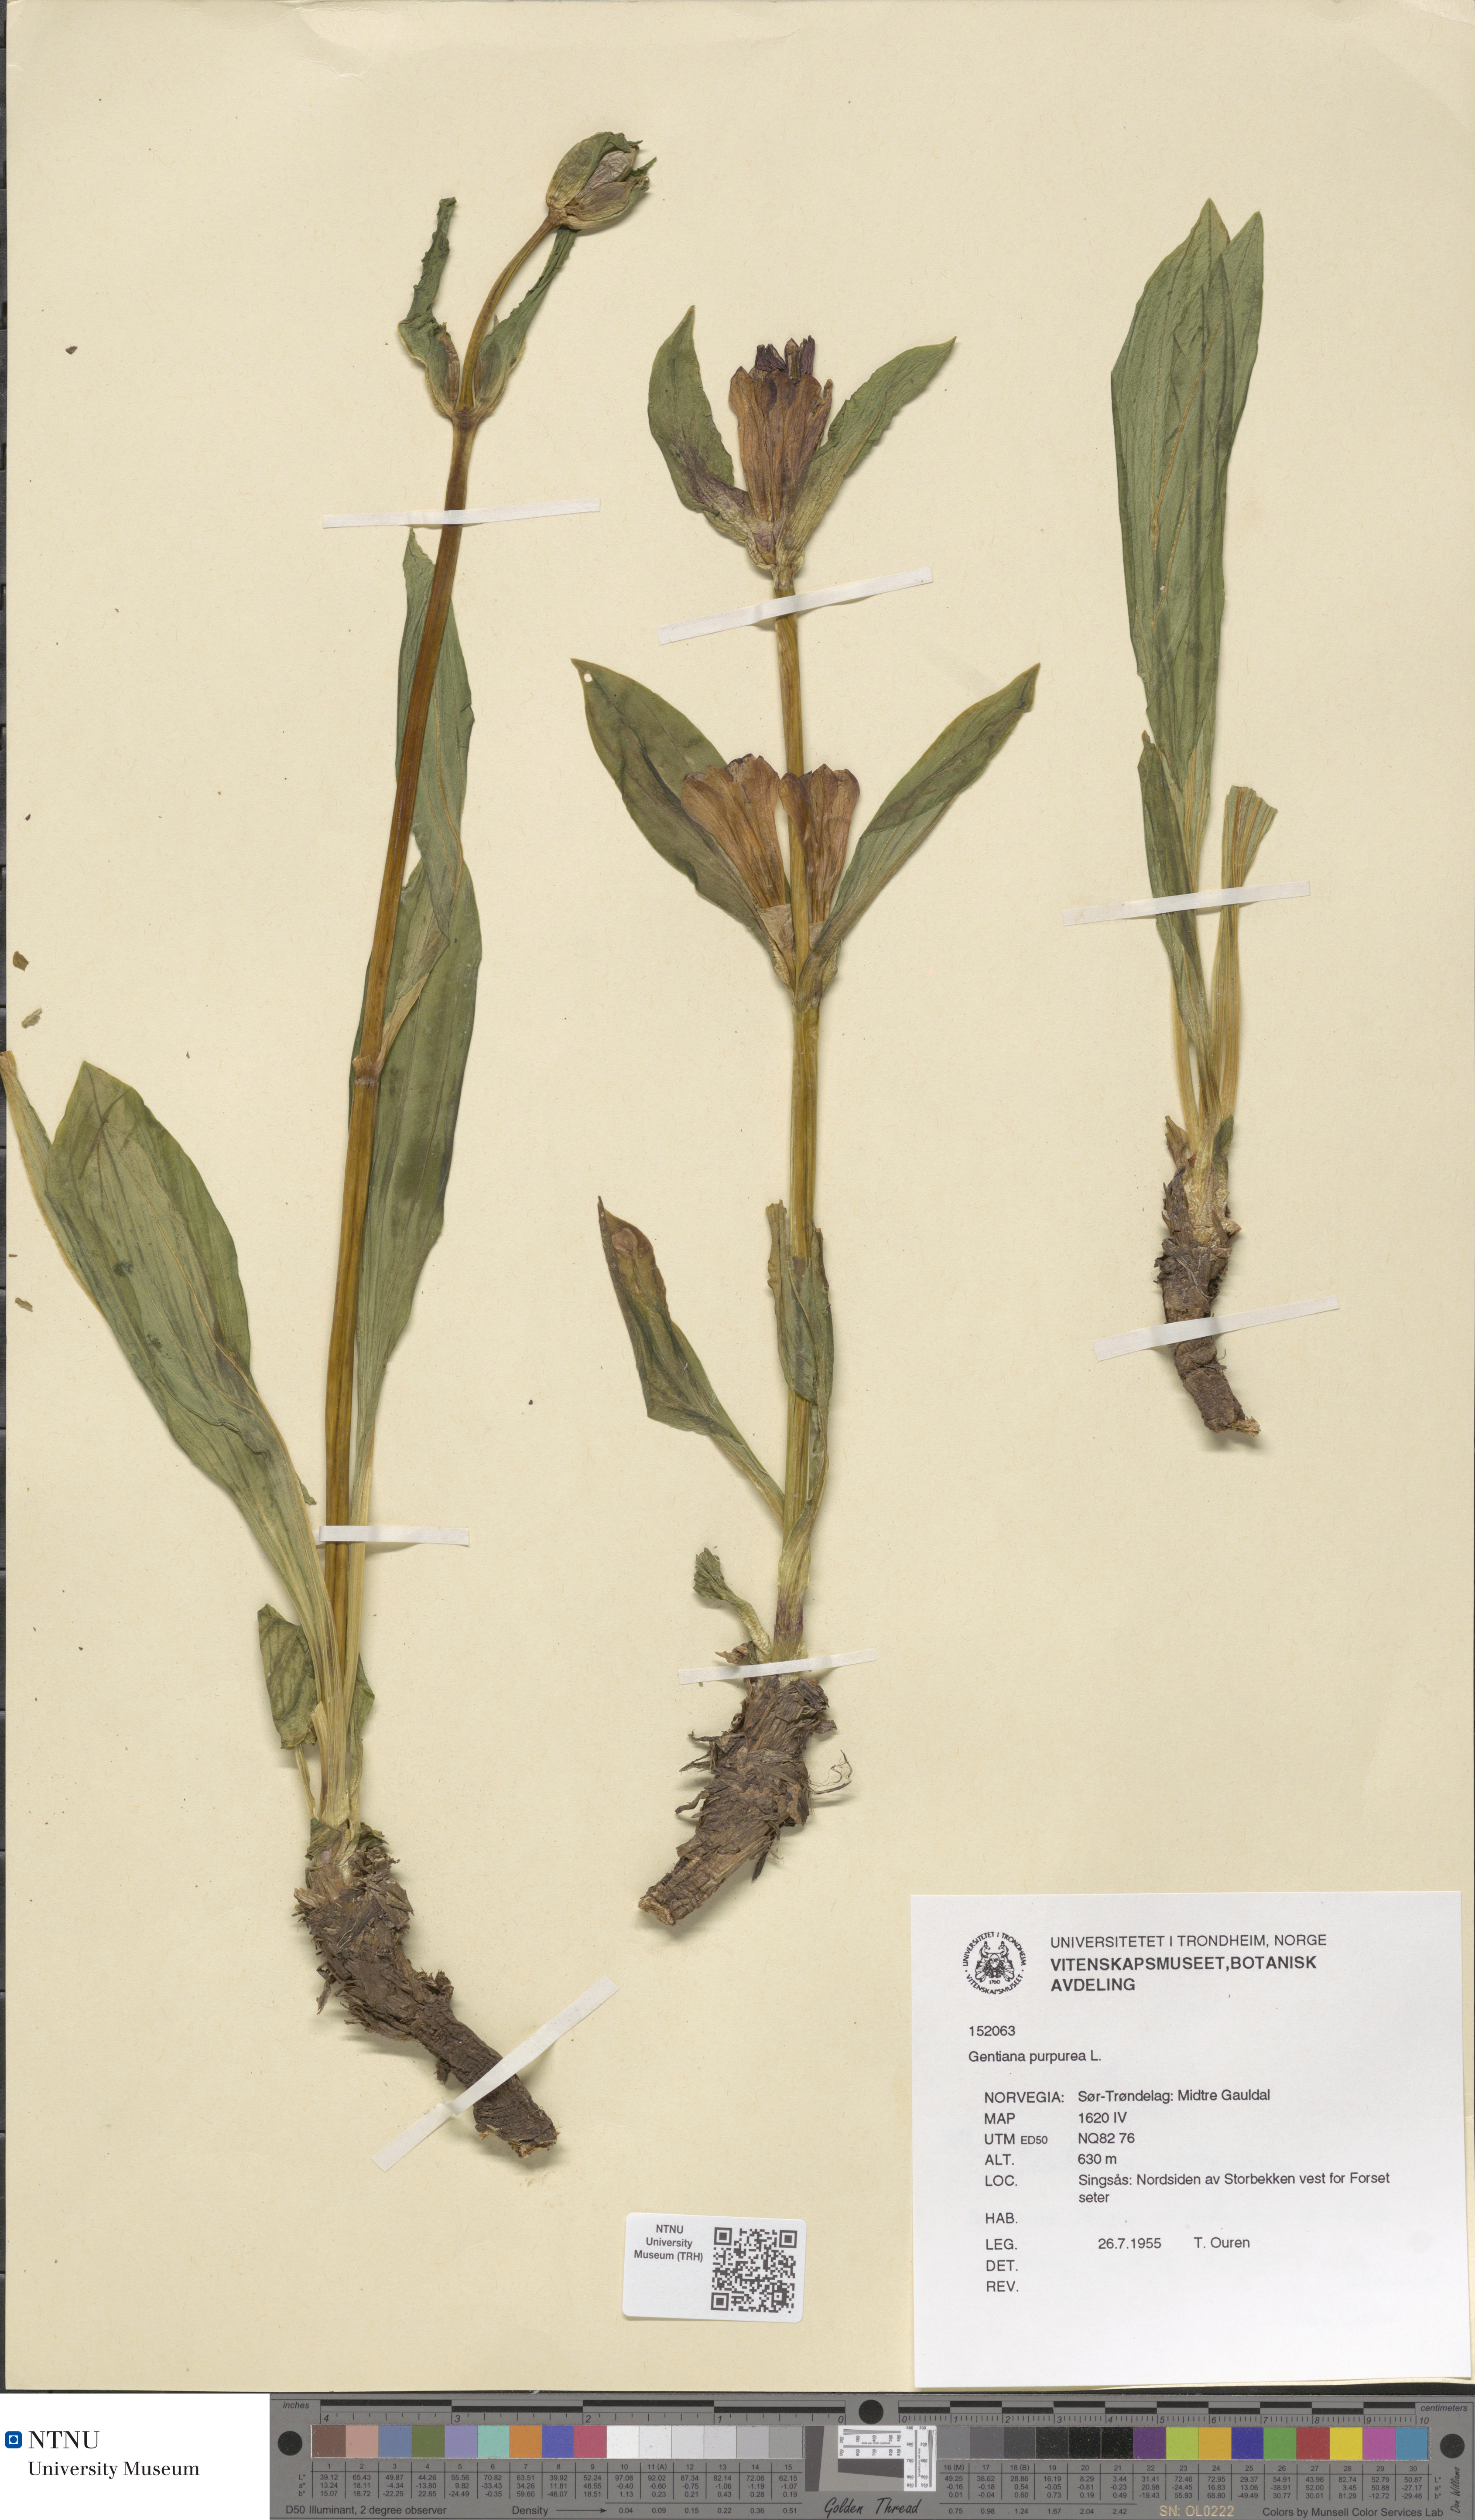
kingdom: Plantae
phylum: Tracheophyta
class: Magnoliopsida
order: Gentianales
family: Gentianaceae
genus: Gentiana
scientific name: Gentiana purpurea
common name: Purple gentian
